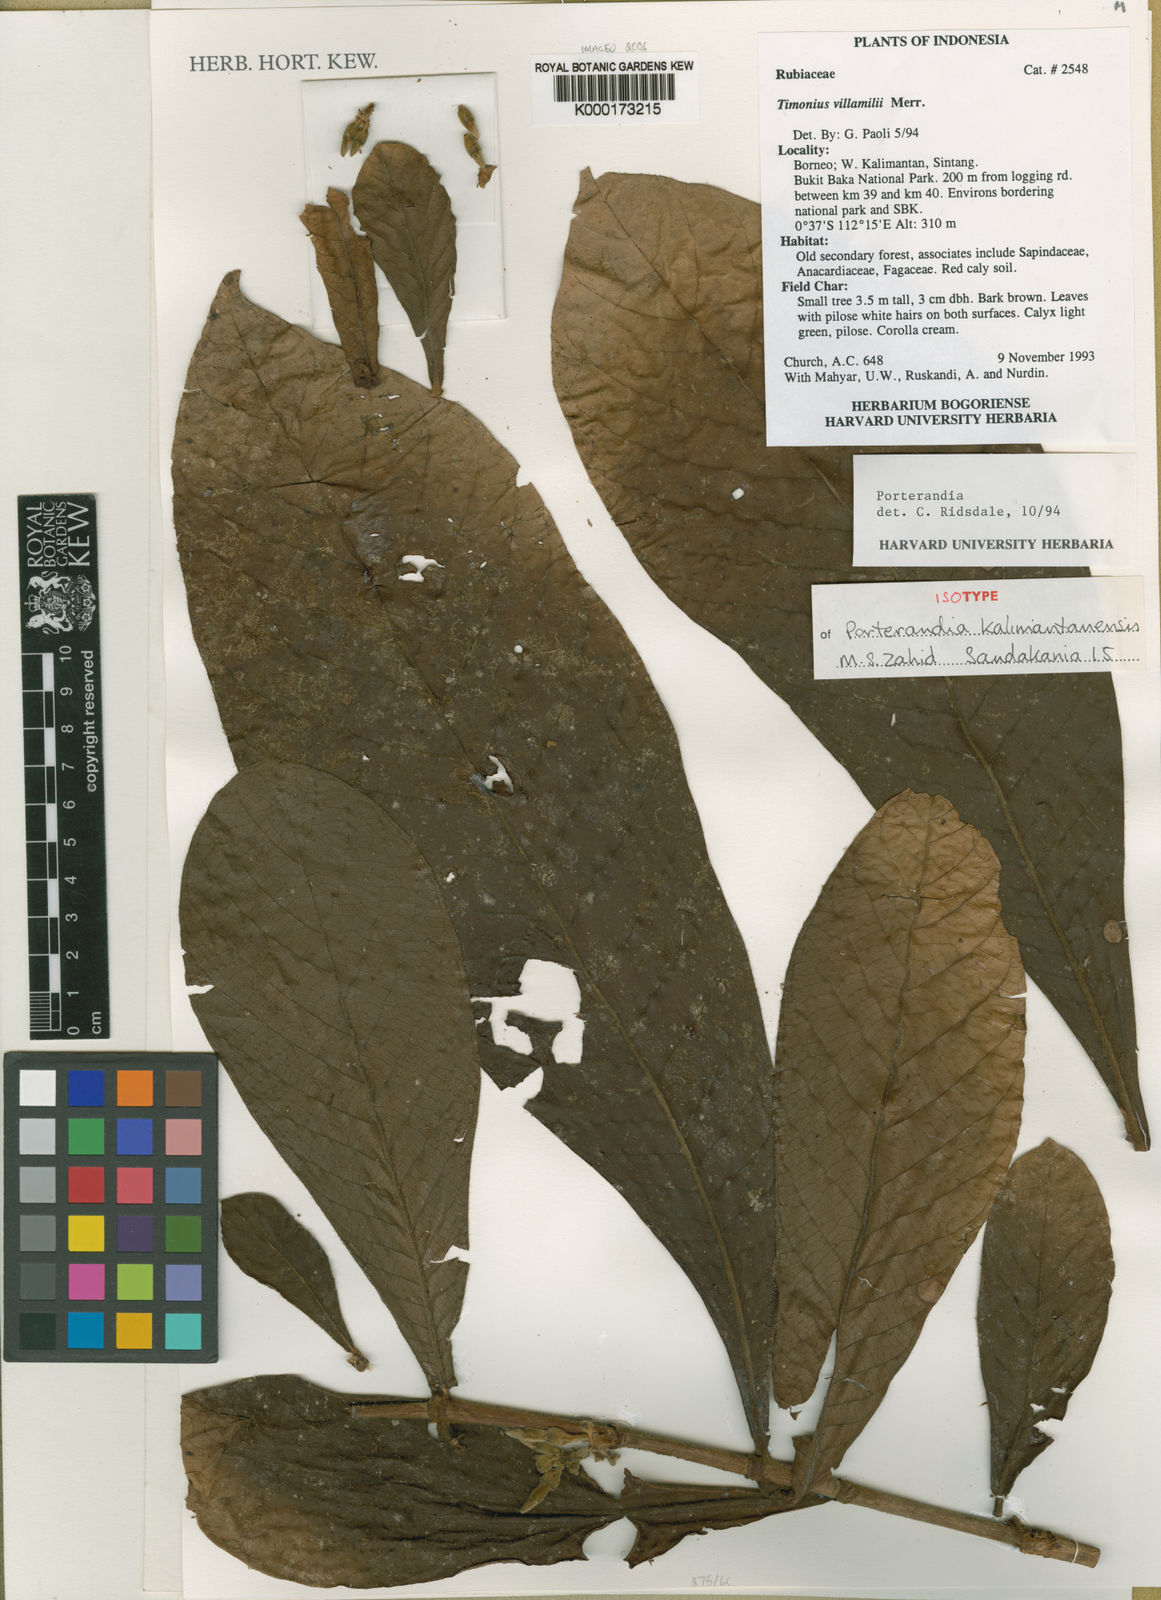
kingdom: Plantae
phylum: Tracheophyta
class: Magnoliopsida
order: Gentianales
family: Rubiaceae
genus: Porterandia
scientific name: Porterandia kalimantanensis
